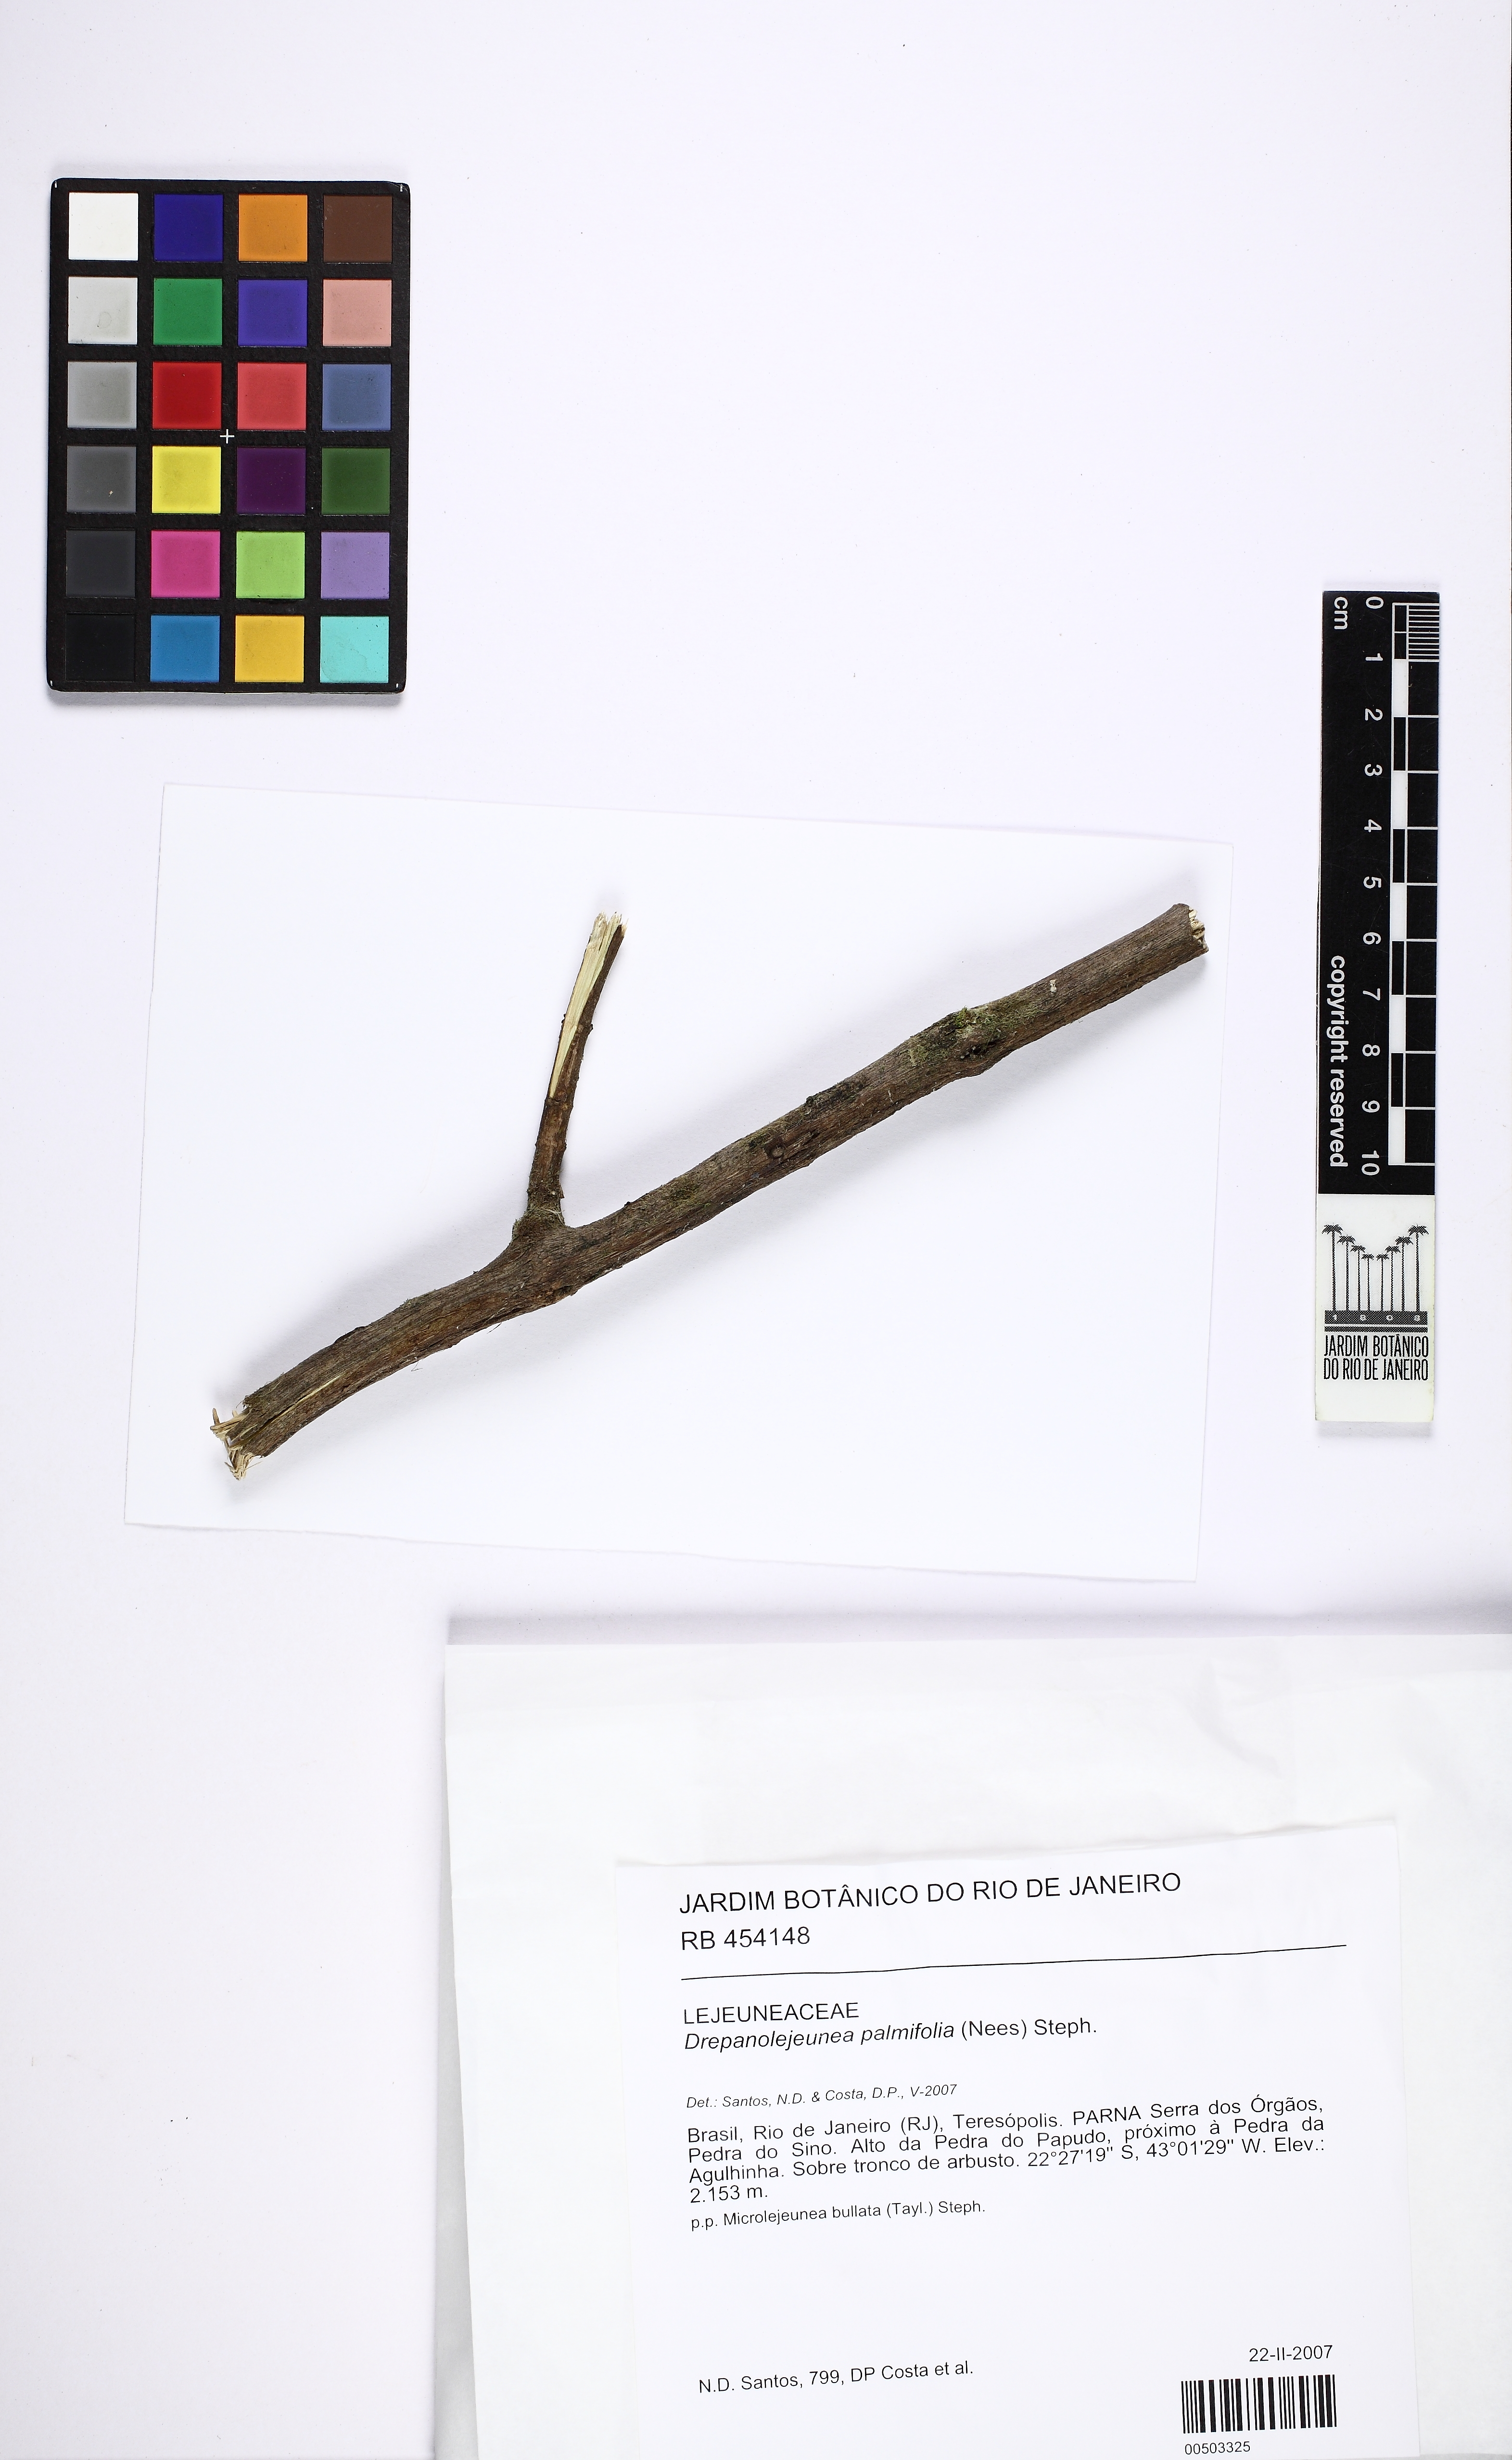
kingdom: Plantae
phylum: Marchantiophyta
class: Jungermanniopsida
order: Porellales
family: Lejeuneaceae
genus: Drepanolejeunea
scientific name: Drepanolejeunea palmifolia
